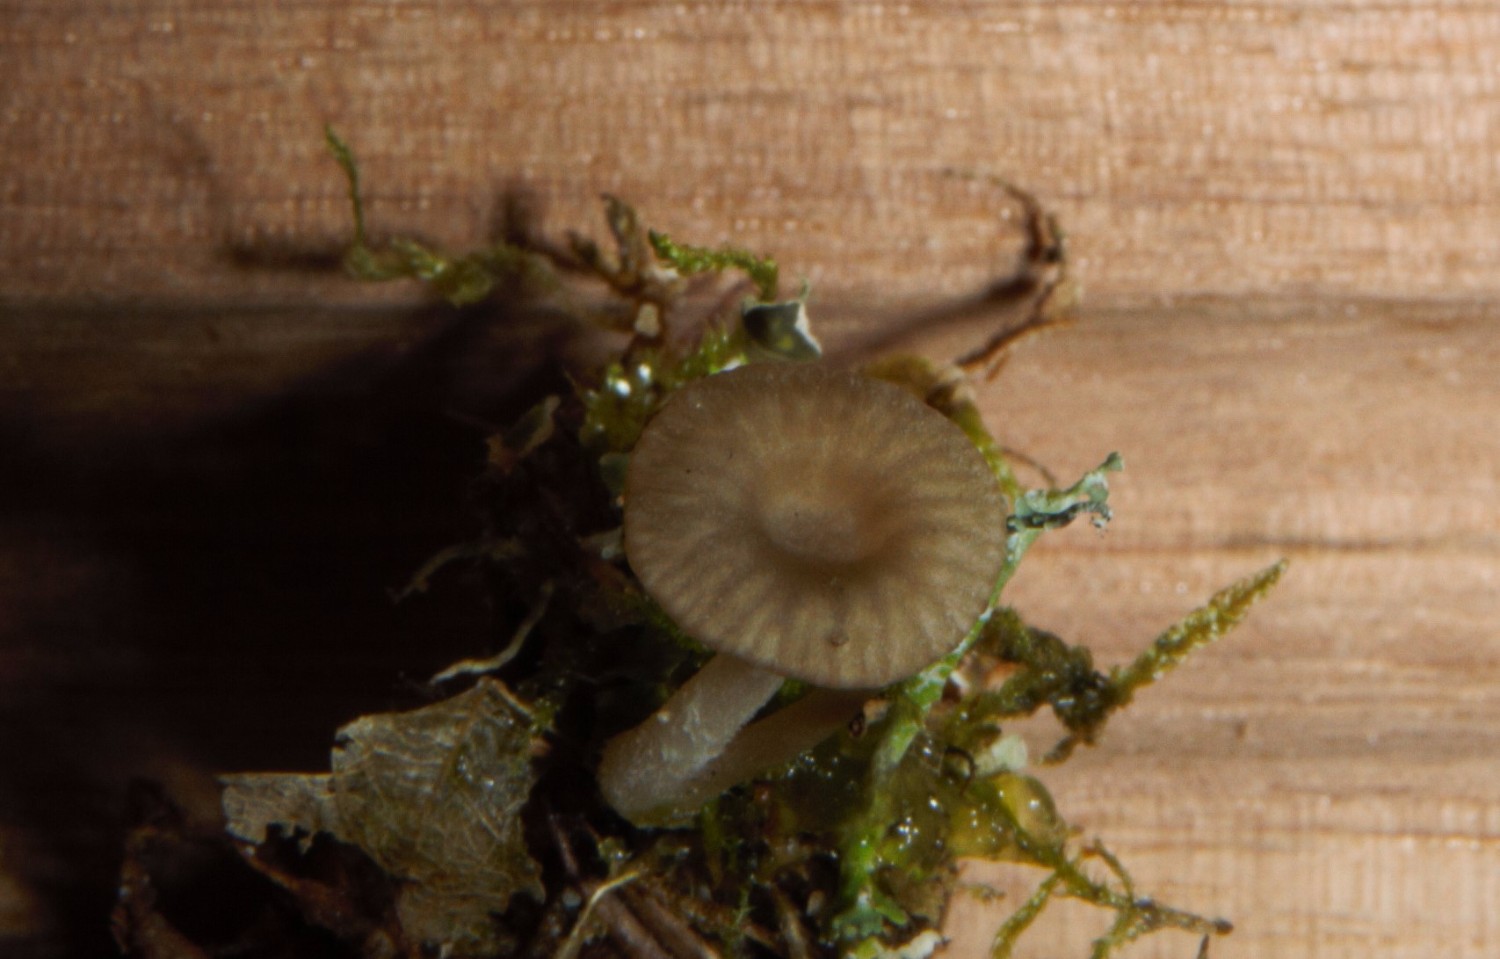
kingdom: Fungi
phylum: Basidiomycota
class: Agaricomycetes
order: Agaricales
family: Hygrophoraceae
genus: Arrhenia
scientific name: Arrhenia peltigerina
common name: skjoldlav-fontænehat
